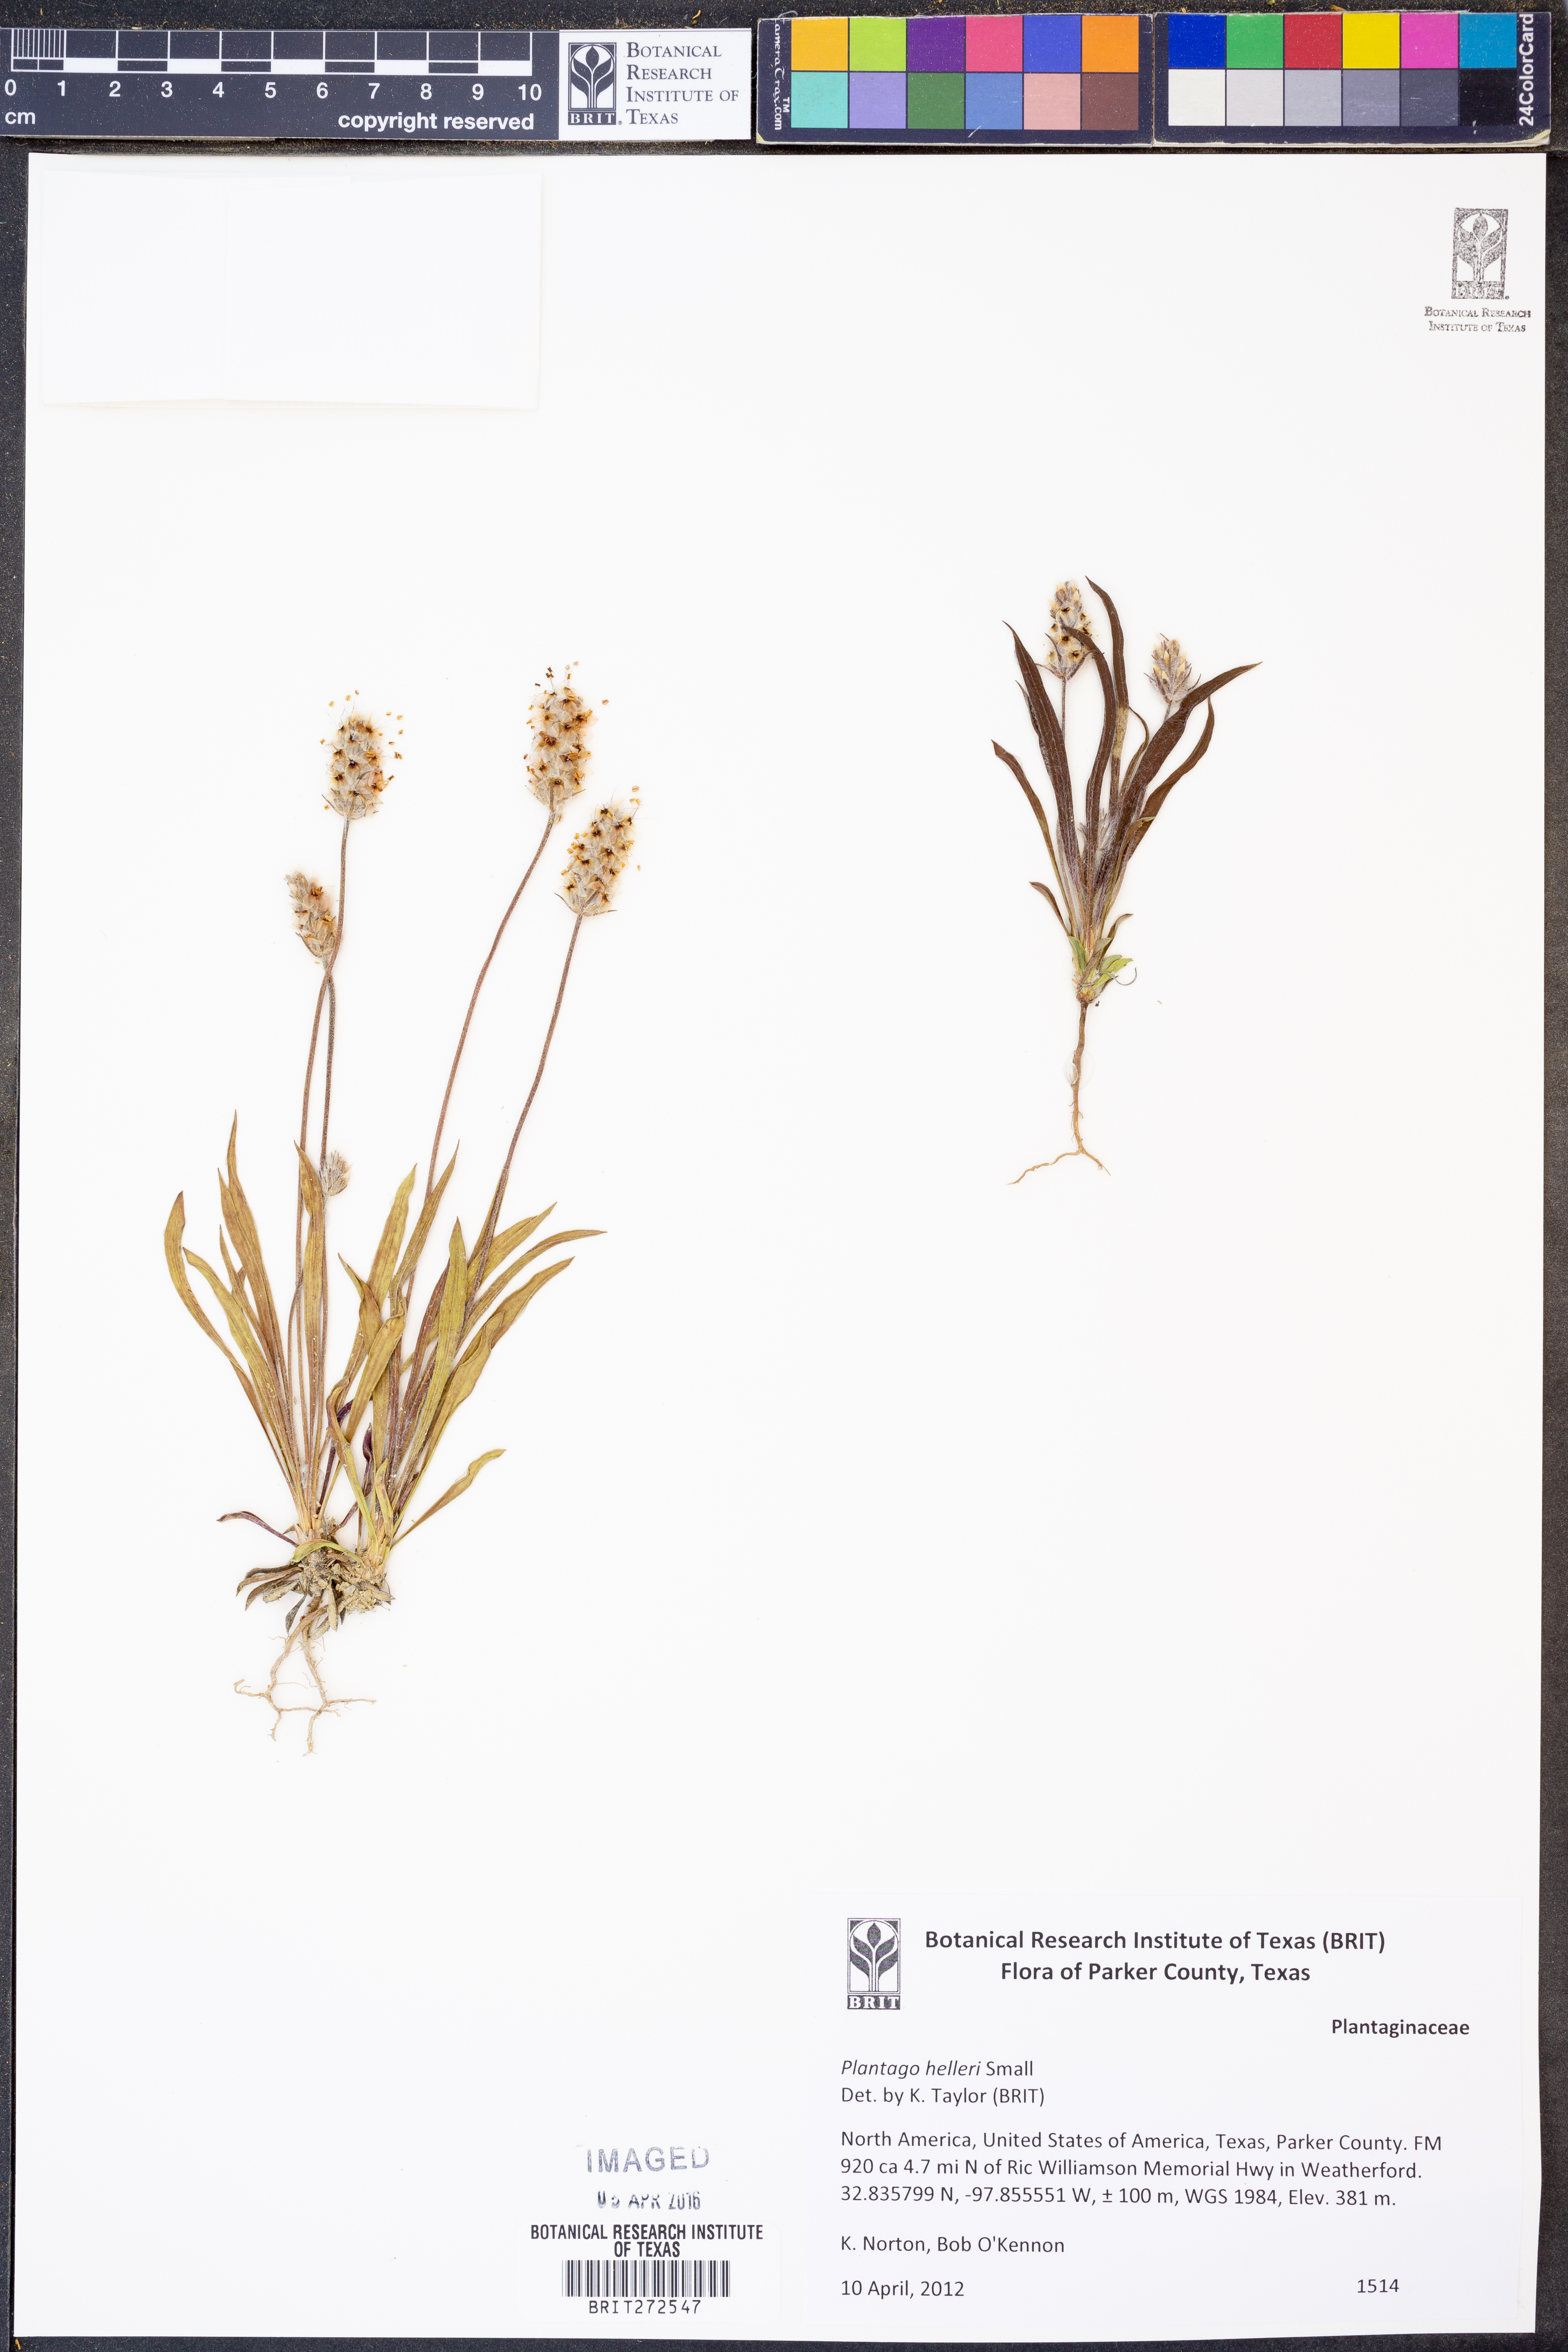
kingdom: Plantae
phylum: Tracheophyta
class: Magnoliopsida
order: Lamiales
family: Plantaginaceae
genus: Plantago
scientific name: Plantago helleri
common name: Heller's plantain
